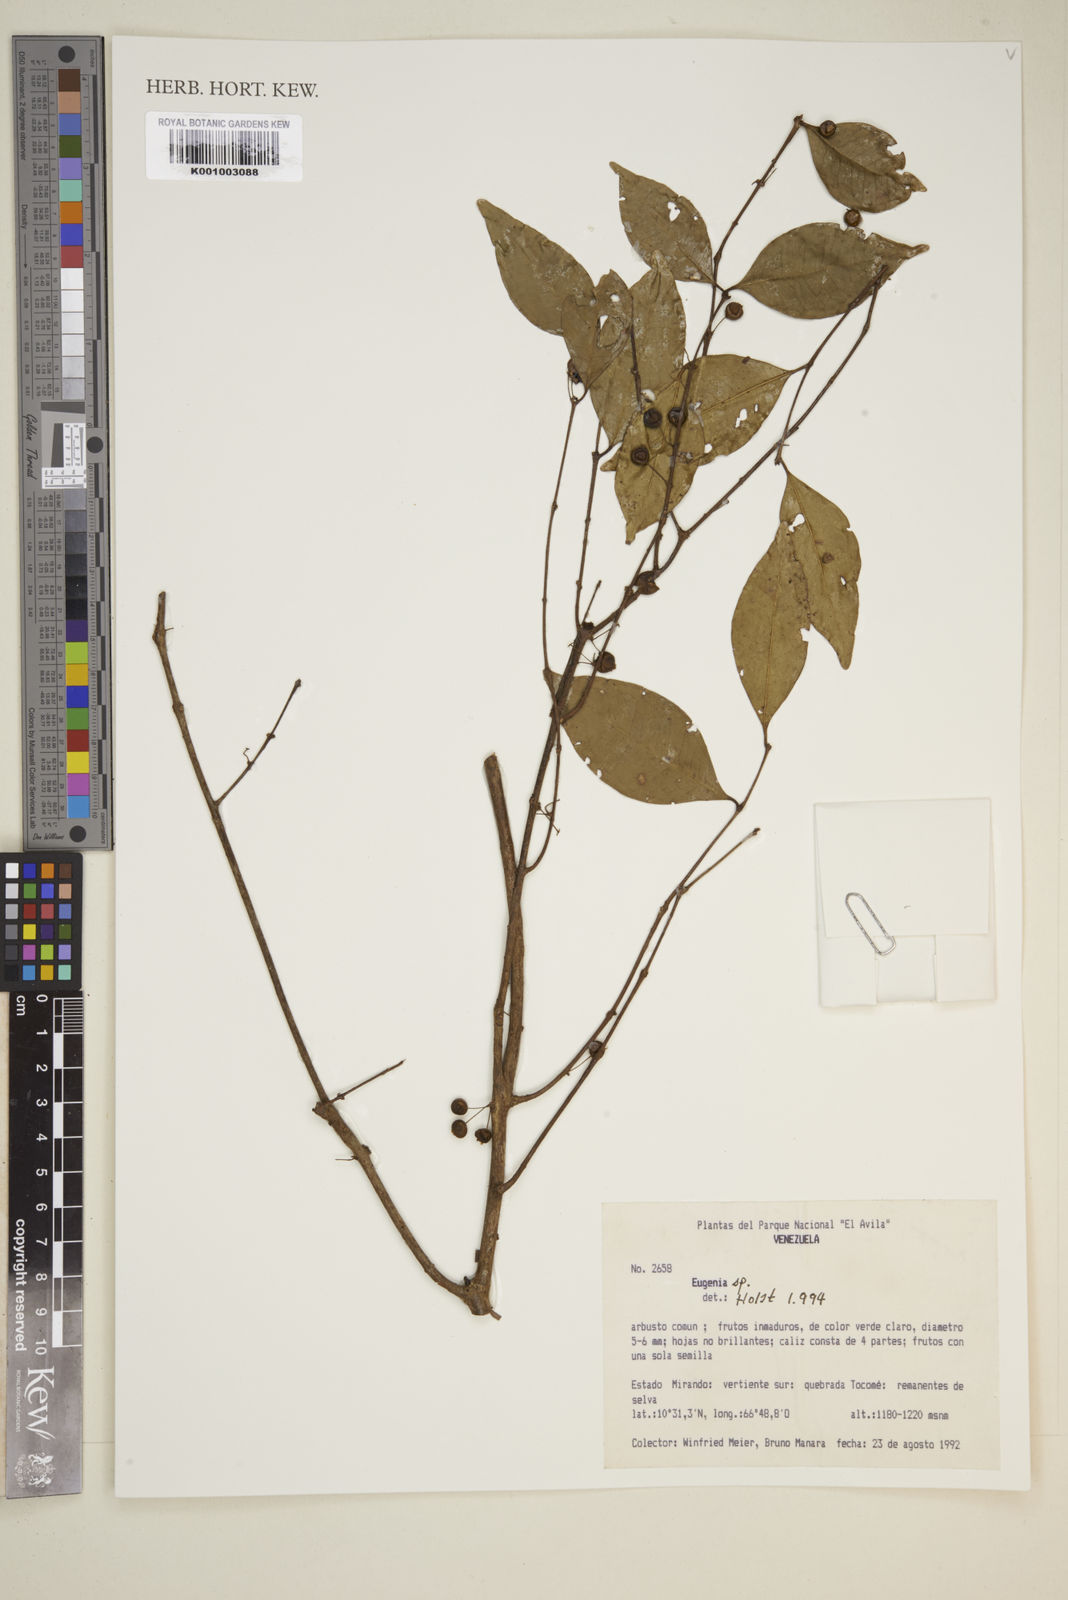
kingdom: Plantae
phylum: Tracheophyta
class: Magnoliopsida
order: Myrtales
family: Myrtaceae
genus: Eugenia
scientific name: Eugenia
